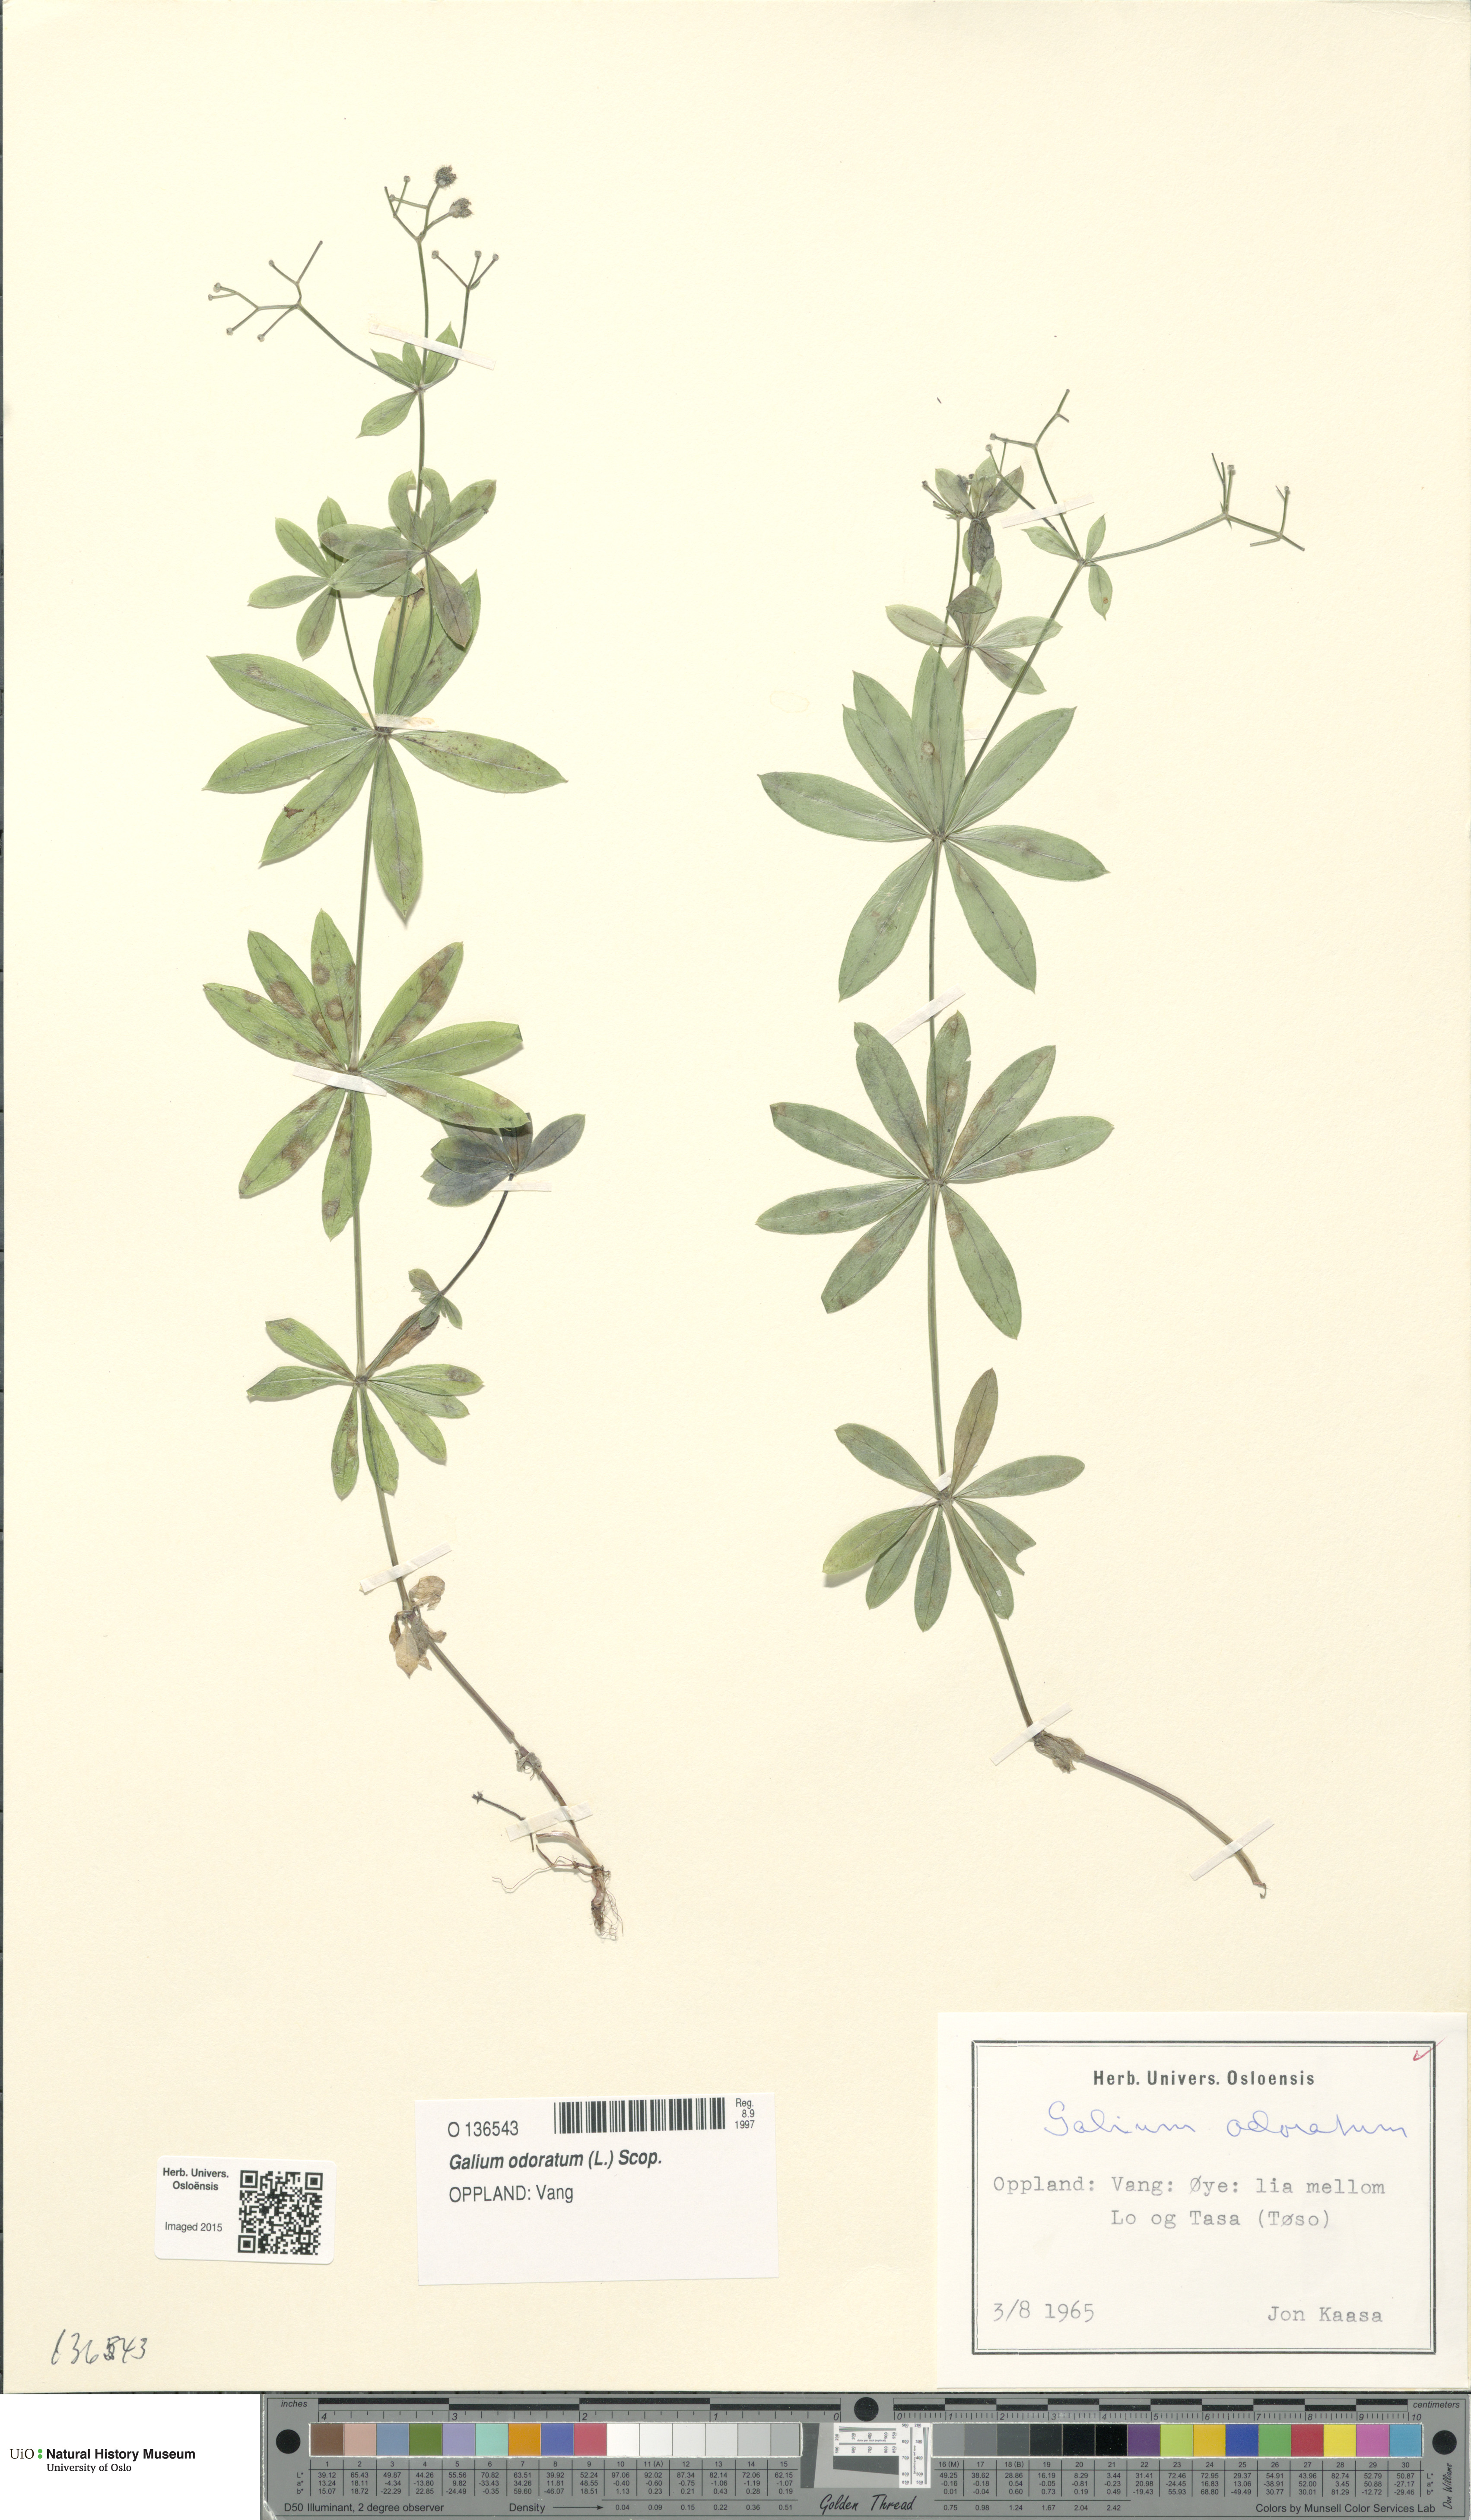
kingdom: Plantae
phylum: Tracheophyta
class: Magnoliopsida
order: Gentianales
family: Rubiaceae
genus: Galium
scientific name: Galium odoratum
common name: Sweet woodruff
